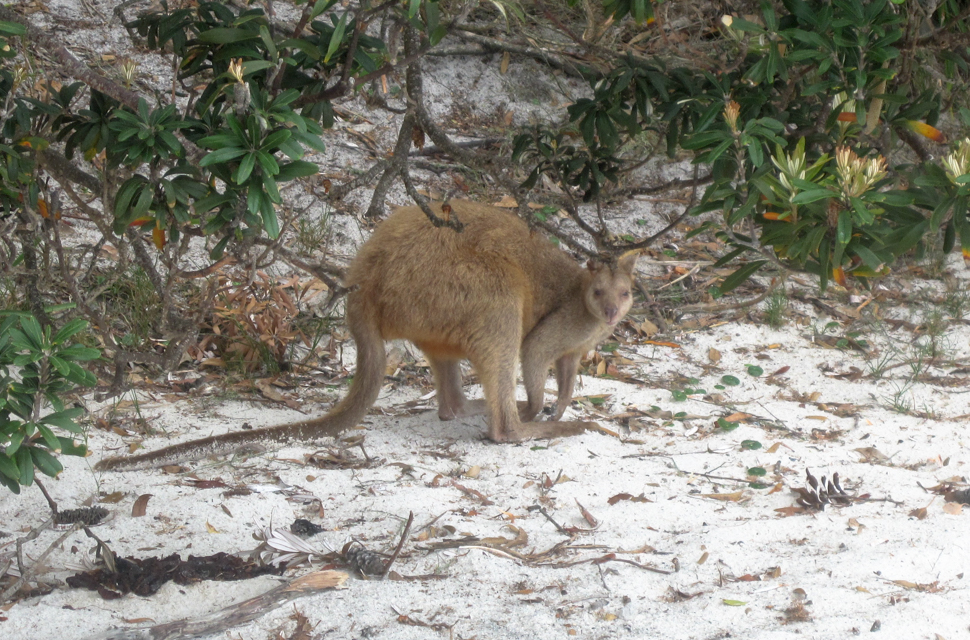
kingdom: Animalia
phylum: Chordata
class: Mammalia
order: Diprotodontia
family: Macropodidae
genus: Macropus
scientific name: Macropus giganteus
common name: Eastern grey kangaroo
